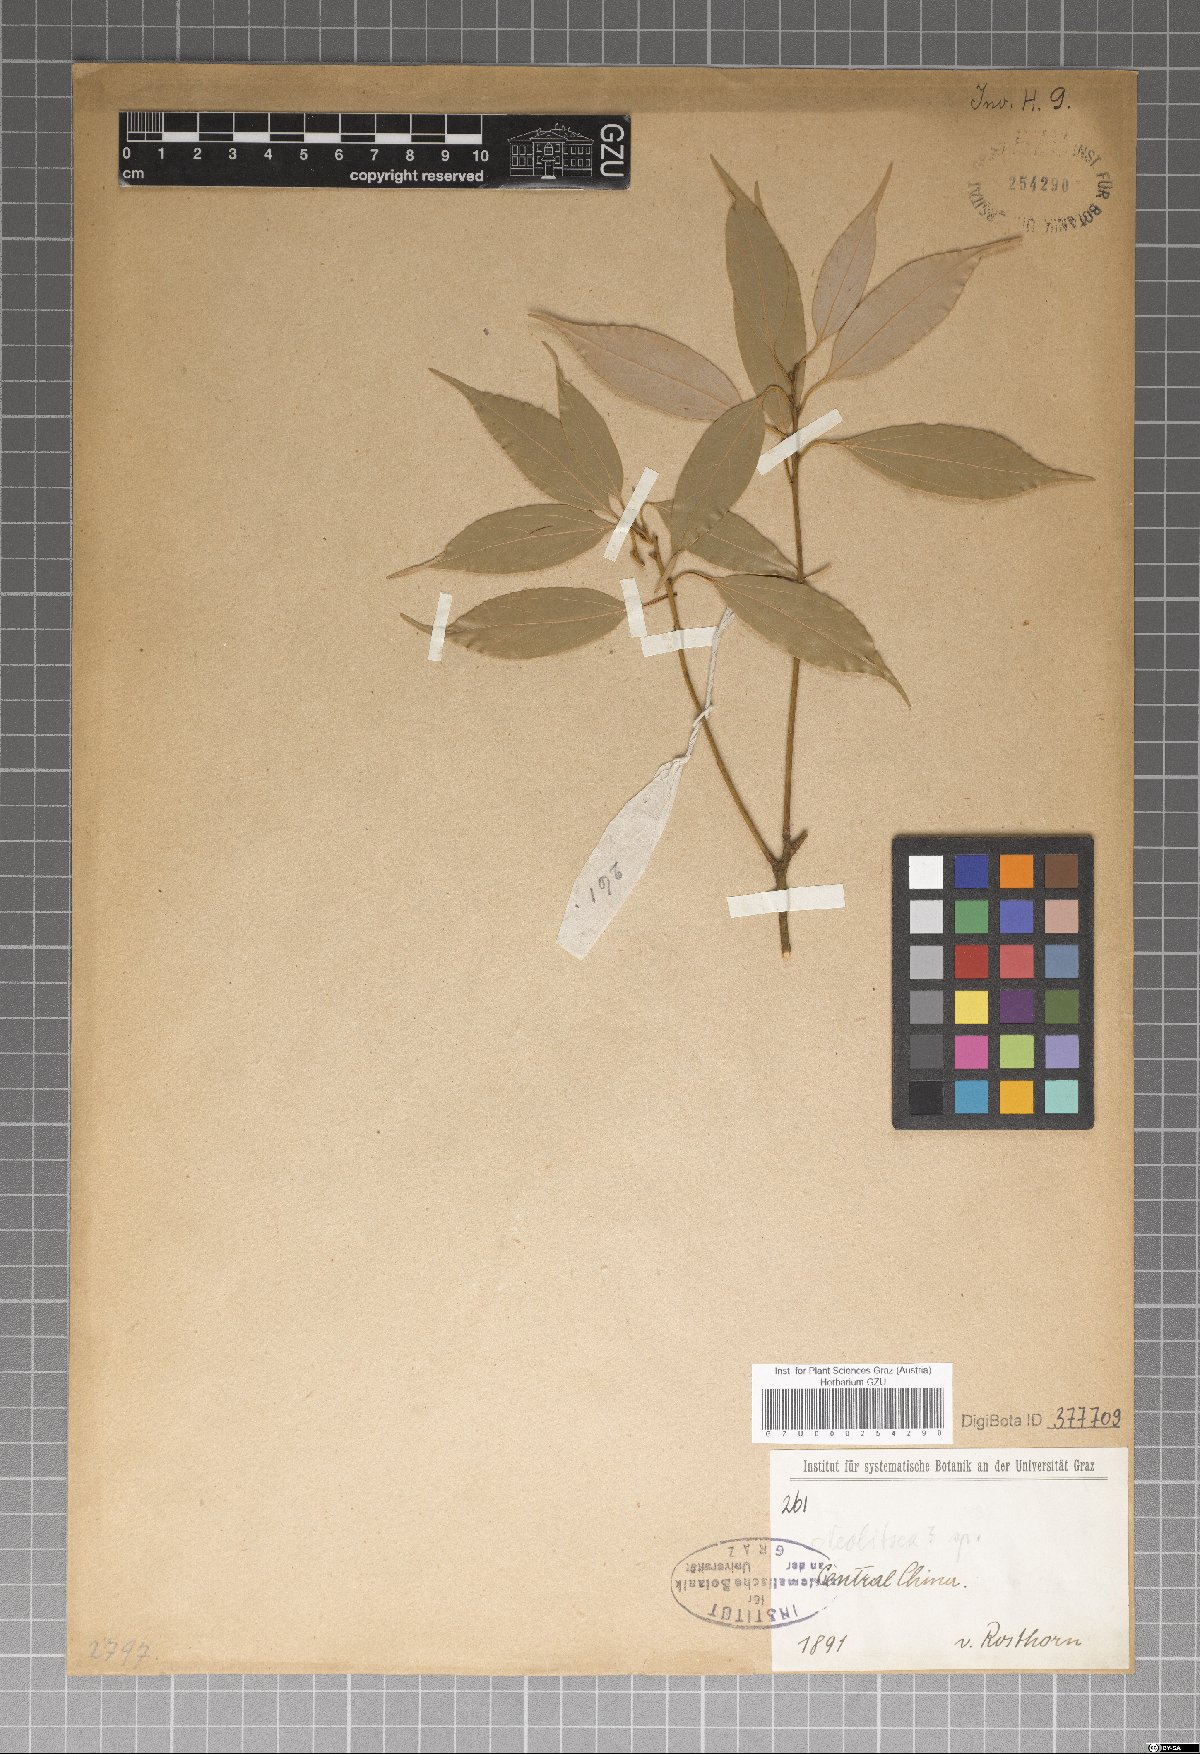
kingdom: Plantae
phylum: Tracheophyta
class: Magnoliopsida
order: Laurales
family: Lauraceae
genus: Neolitsea
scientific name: Neolitsea
